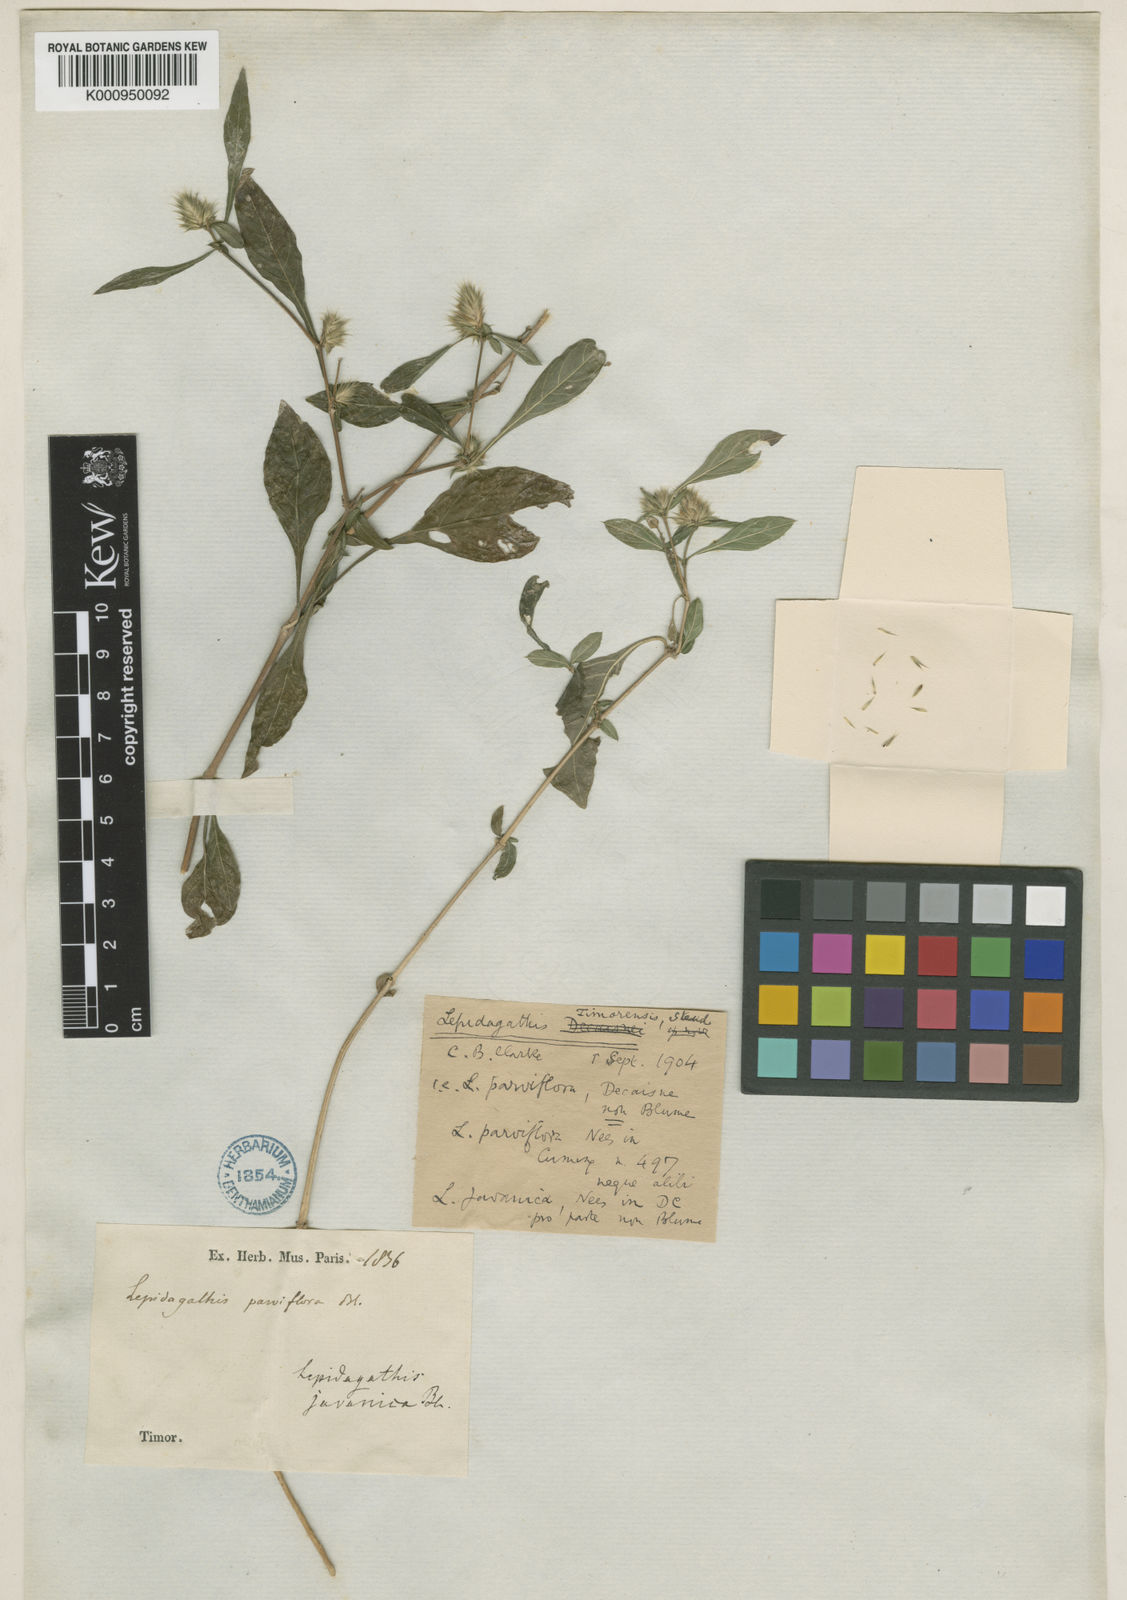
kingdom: Plantae
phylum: Tracheophyta
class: Magnoliopsida
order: Lamiales
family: Acanthaceae
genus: Lepidagathis
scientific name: Lepidagathis javanica
